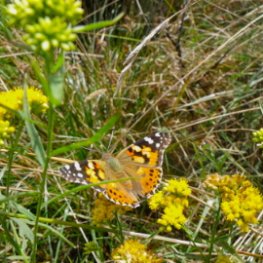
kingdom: Animalia
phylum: Arthropoda
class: Insecta
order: Lepidoptera
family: Nymphalidae
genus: Vanessa
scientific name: Vanessa cardui
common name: Painted Lady
